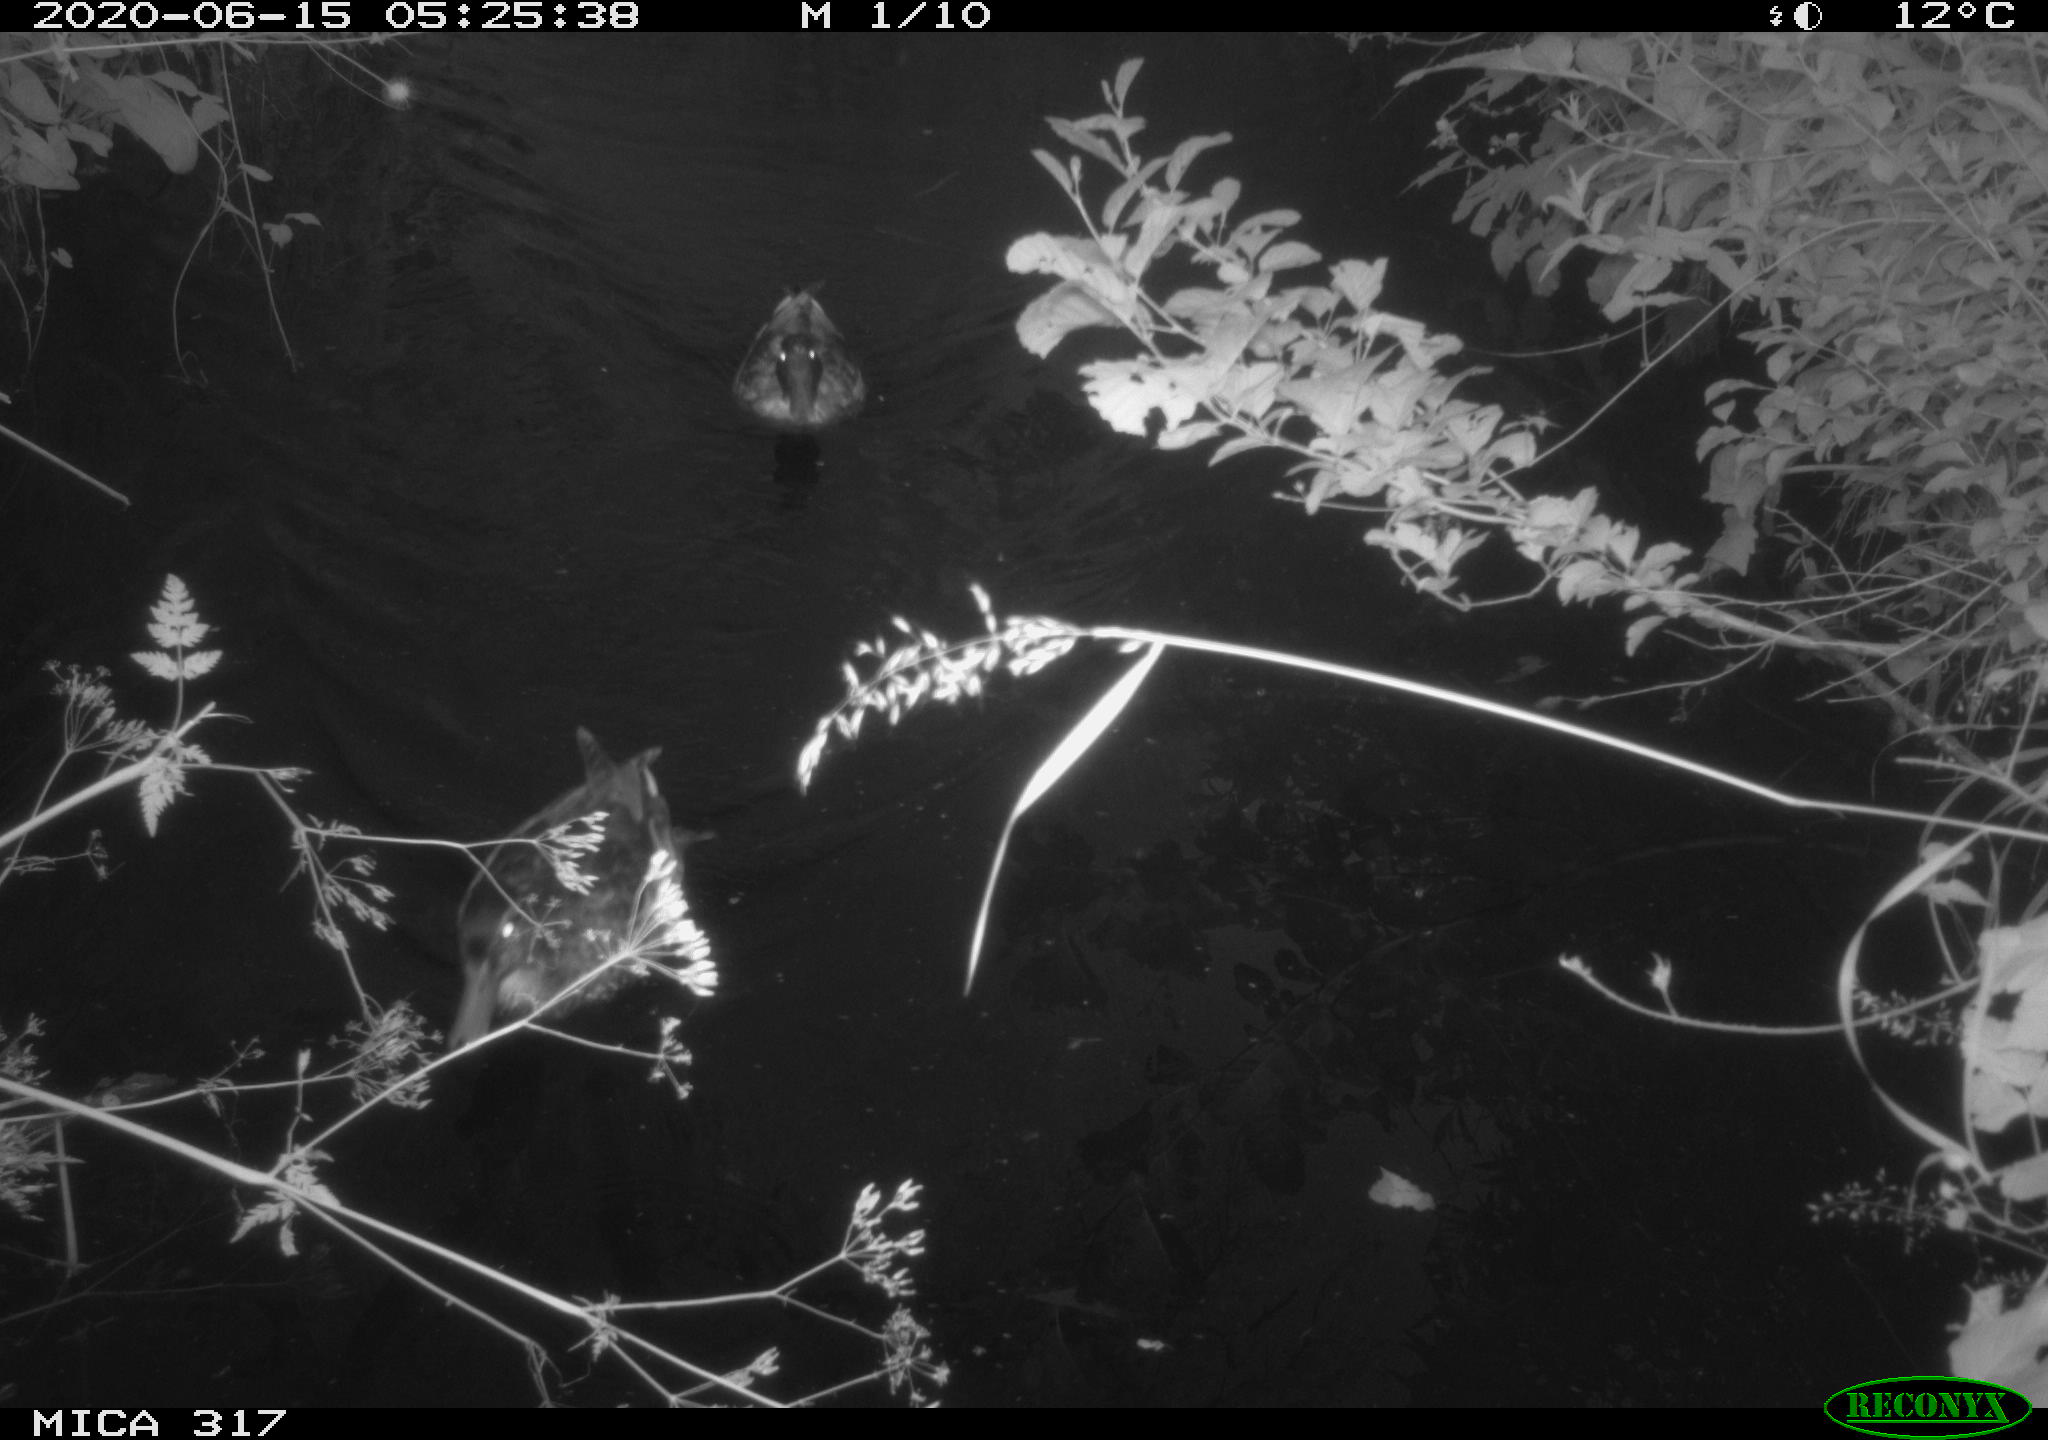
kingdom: Animalia
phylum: Chordata
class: Aves
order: Anseriformes
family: Anatidae
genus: Anas
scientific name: Anas platyrhynchos
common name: Mallard
